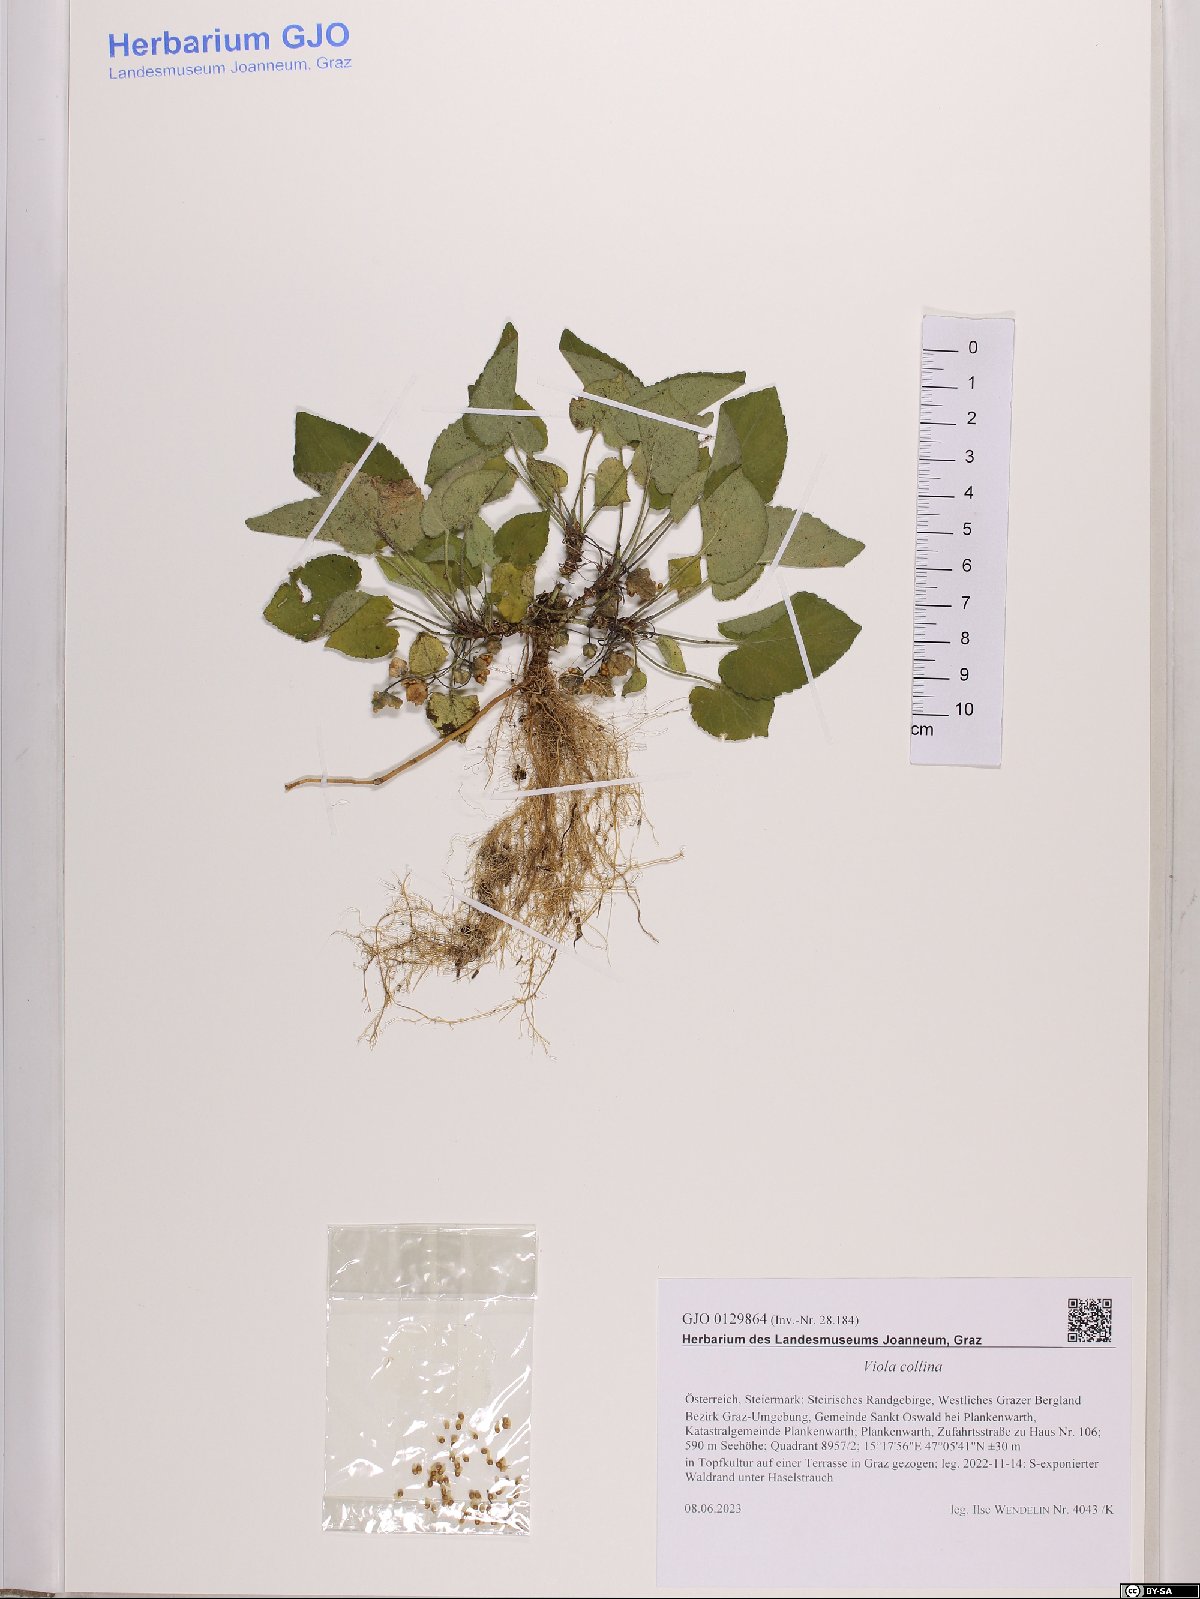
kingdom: Plantae
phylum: Tracheophyta
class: Magnoliopsida
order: Malpighiales
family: Violaceae
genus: Viola
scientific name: Viola collina
